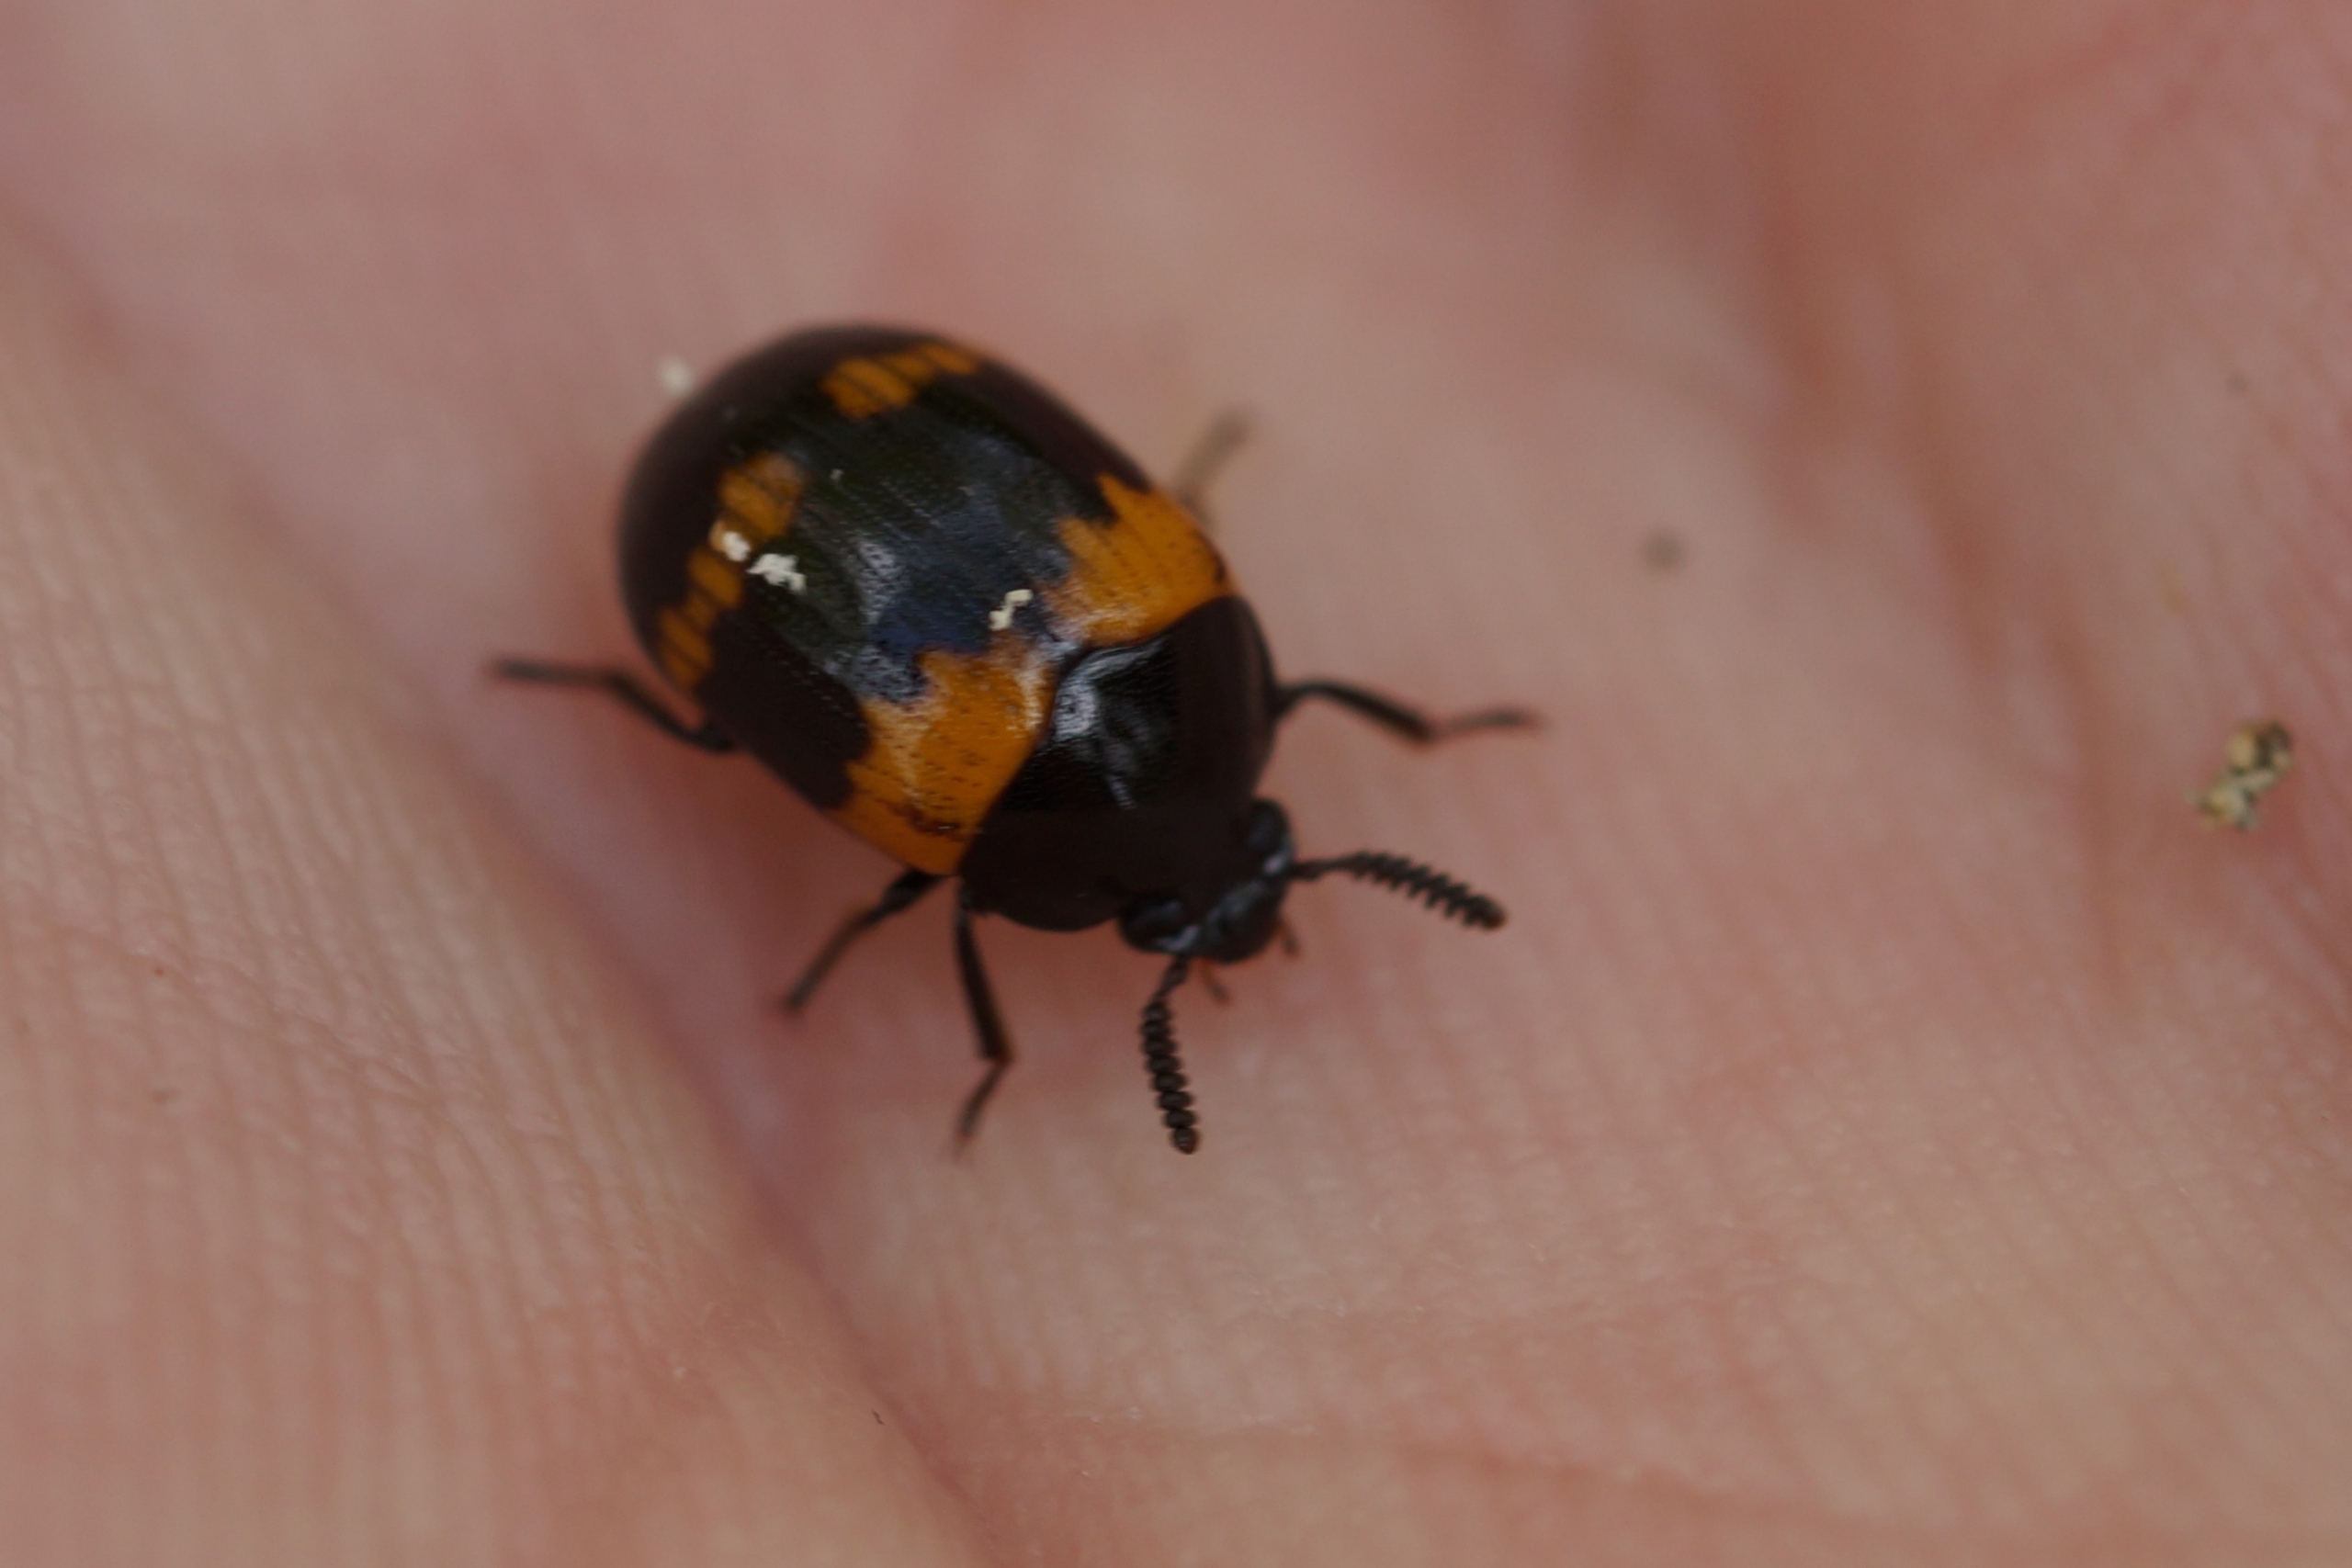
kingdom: Animalia
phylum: Arthropoda
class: Insecta
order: Coleoptera
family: Tenebrionidae
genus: Diaperis
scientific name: Diaperis boleti
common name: Tigerskyggebille
